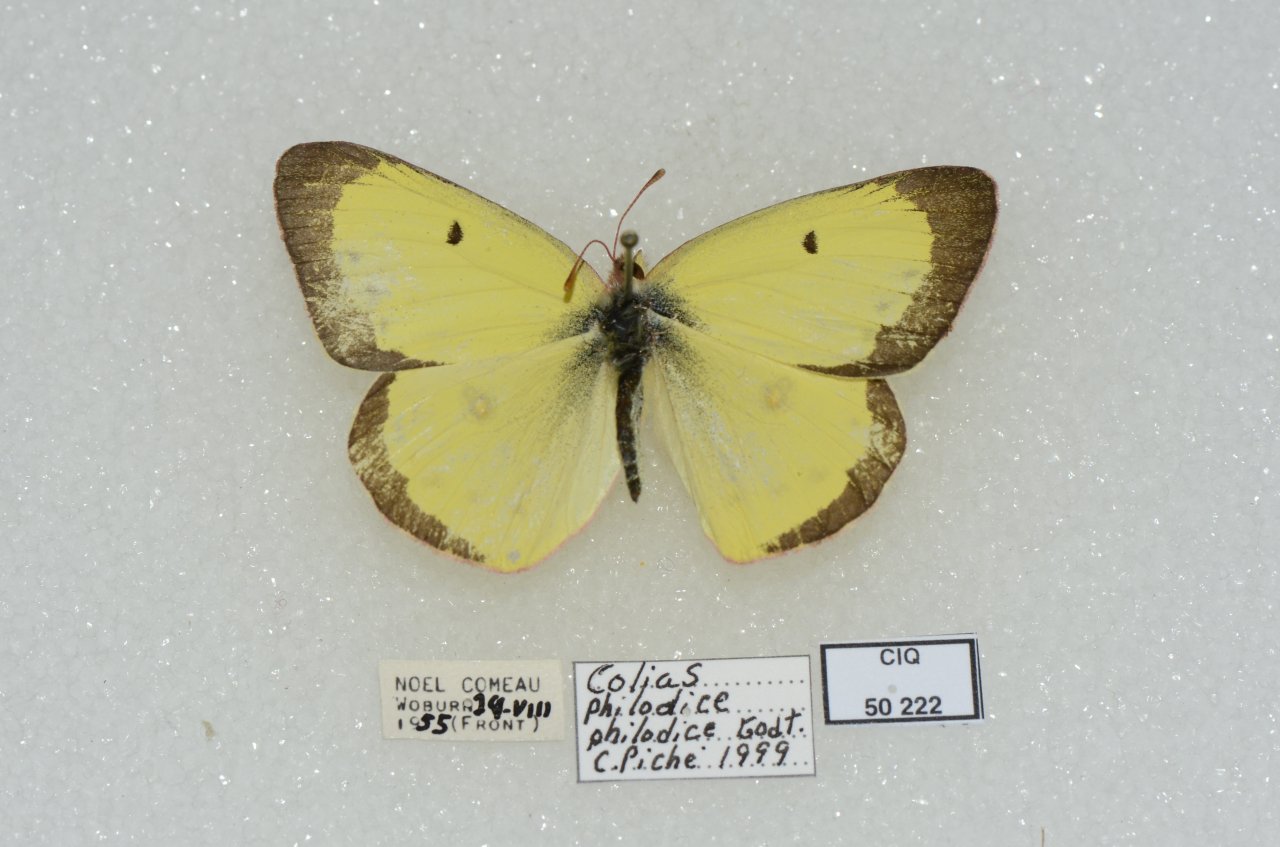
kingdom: Animalia
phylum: Arthropoda
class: Insecta
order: Lepidoptera
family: Pieridae
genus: Colias
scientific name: Colias philodice
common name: Clouded Sulphur
